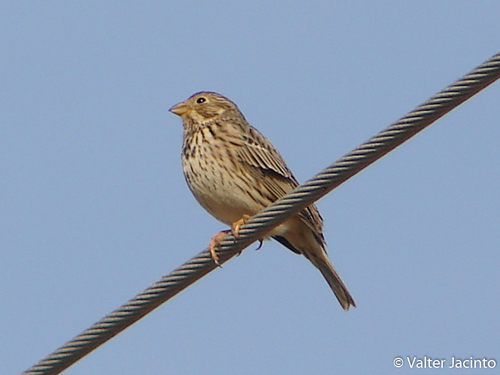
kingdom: Animalia
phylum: Chordata
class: Aves
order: Passeriformes
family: Emberizidae
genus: Emberiza
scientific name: Emberiza calandra
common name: Corn bunting
